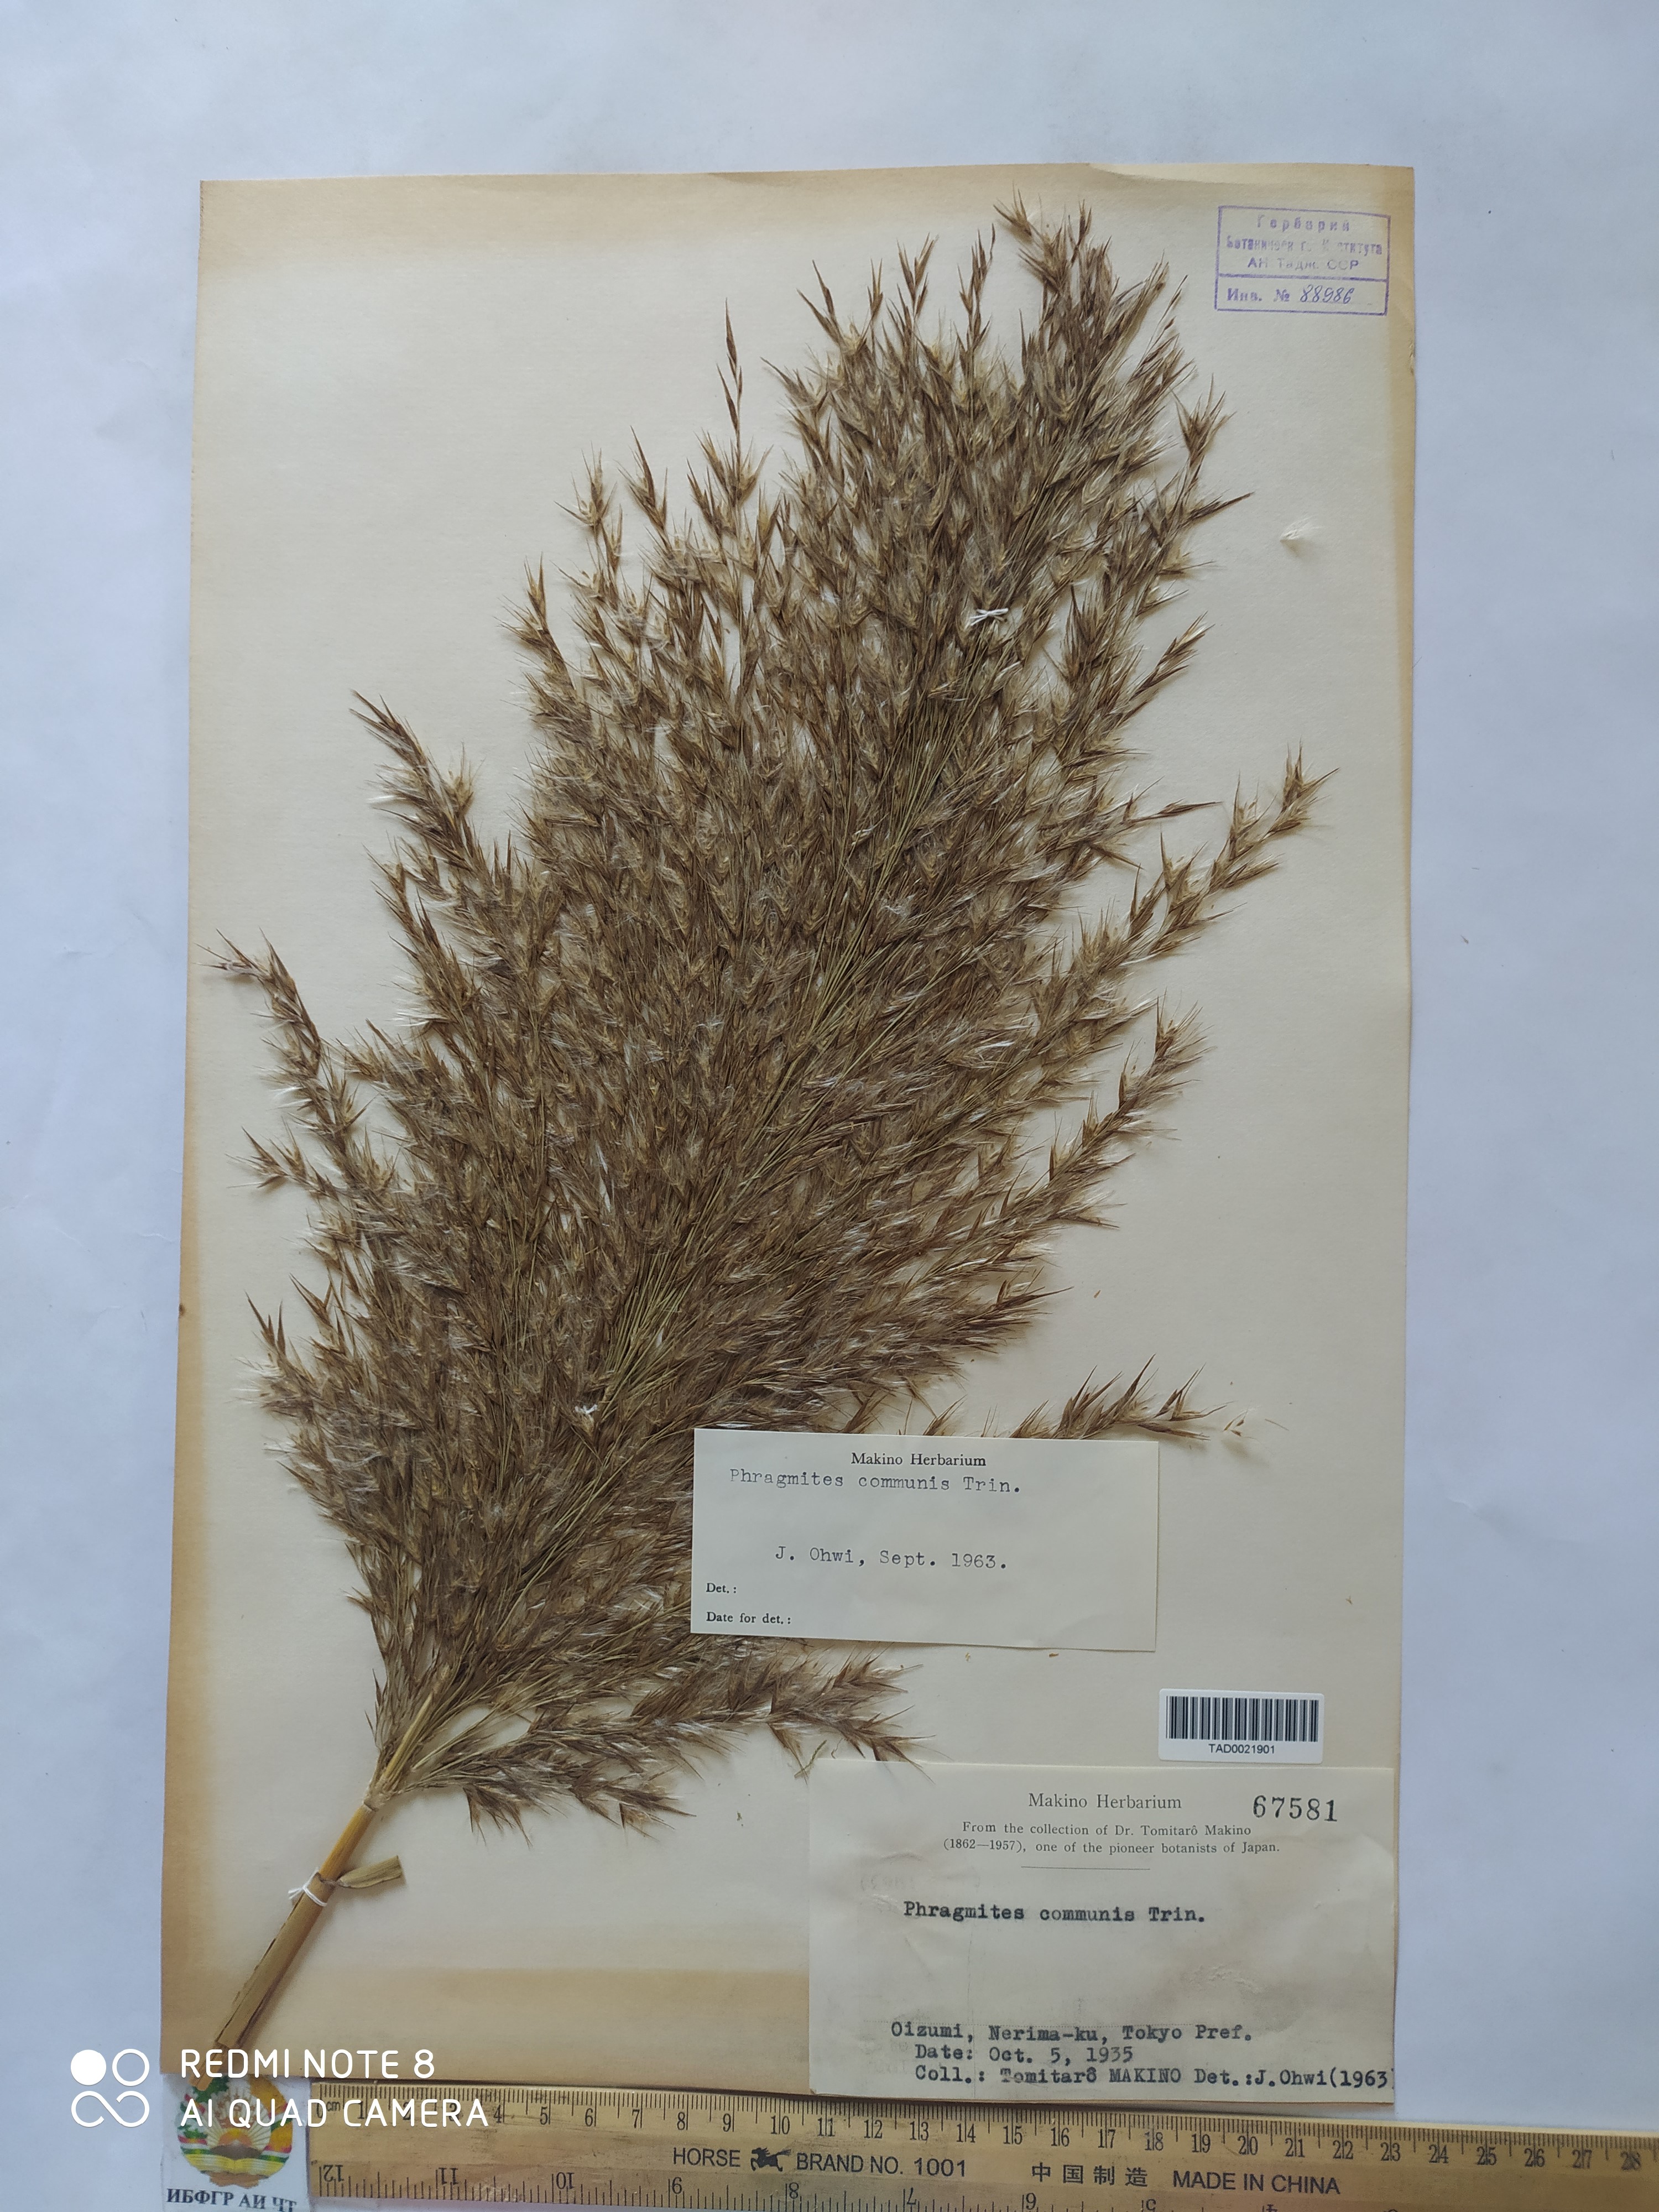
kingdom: Plantae
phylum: Tracheophyta
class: Liliopsida
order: Poales
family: Poaceae
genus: Phragmites
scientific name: Phragmites australis
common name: Common reed
